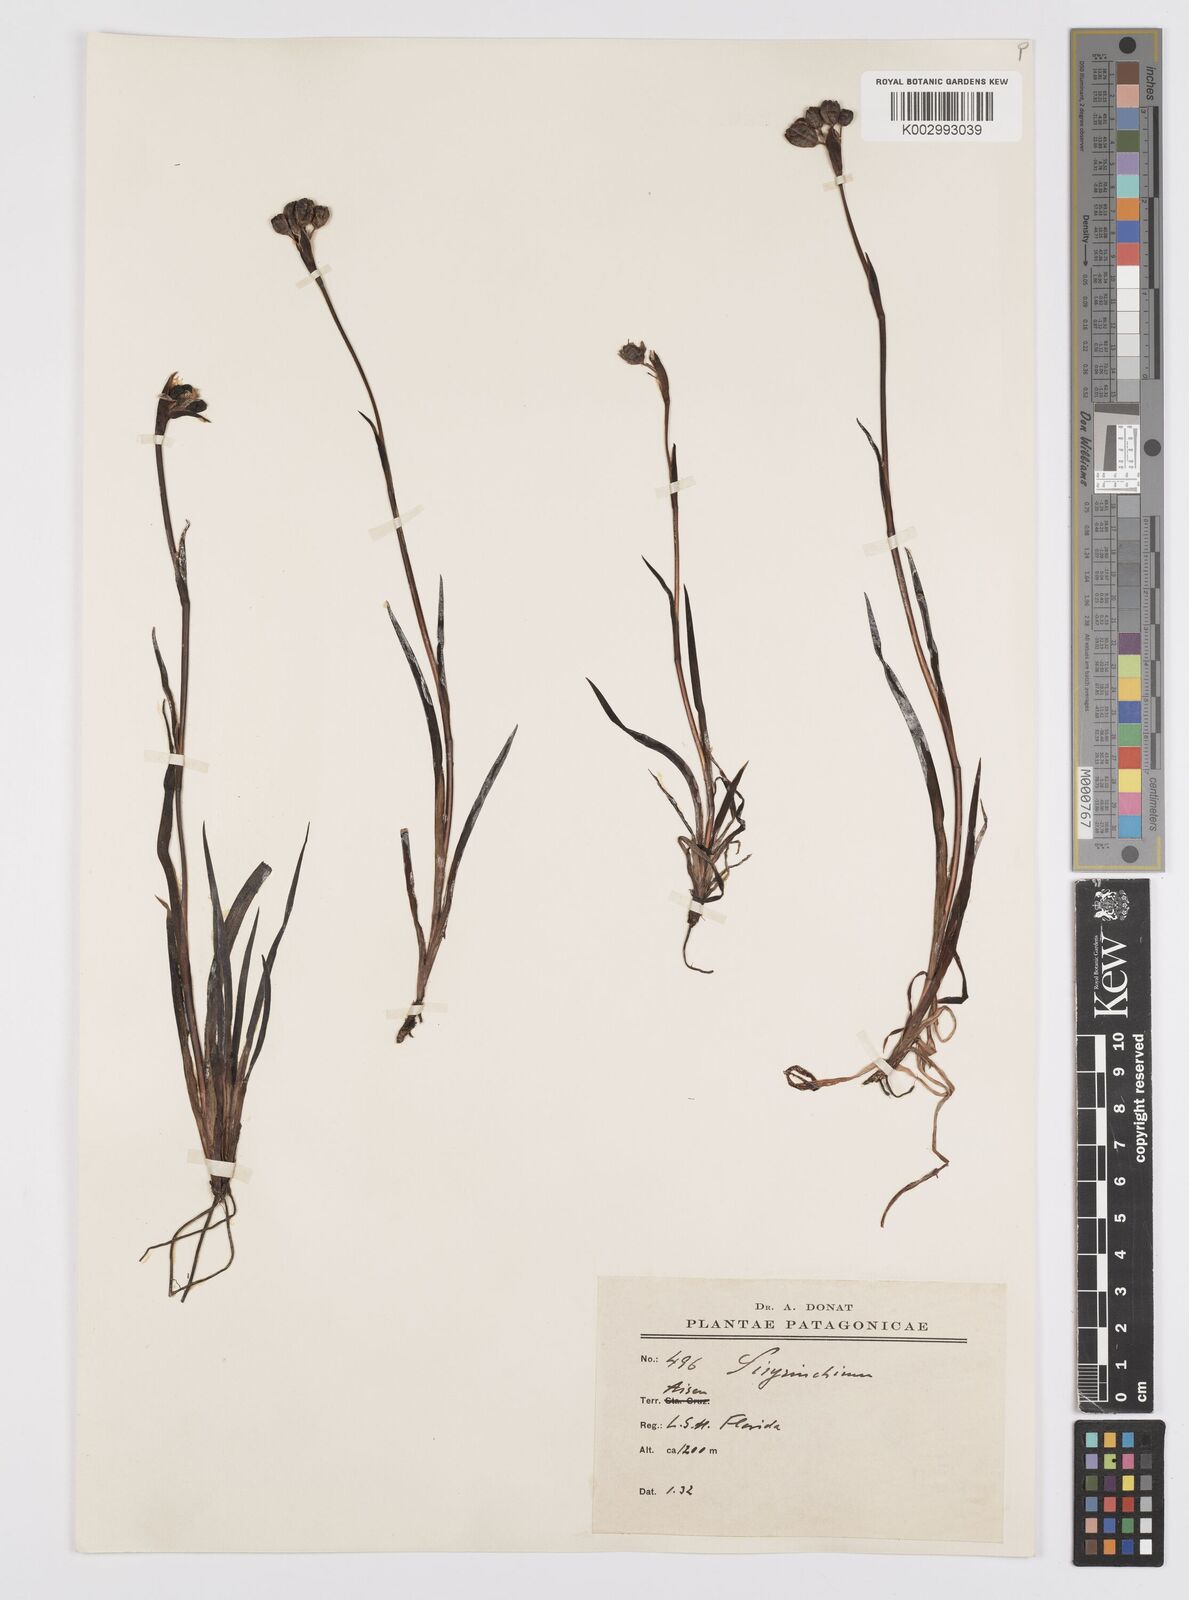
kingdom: Plantae
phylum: Tracheophyta
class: Liliopsida
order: Asparagales
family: Iridaceae
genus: Sisyrinchium
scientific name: Sisyrinchium
